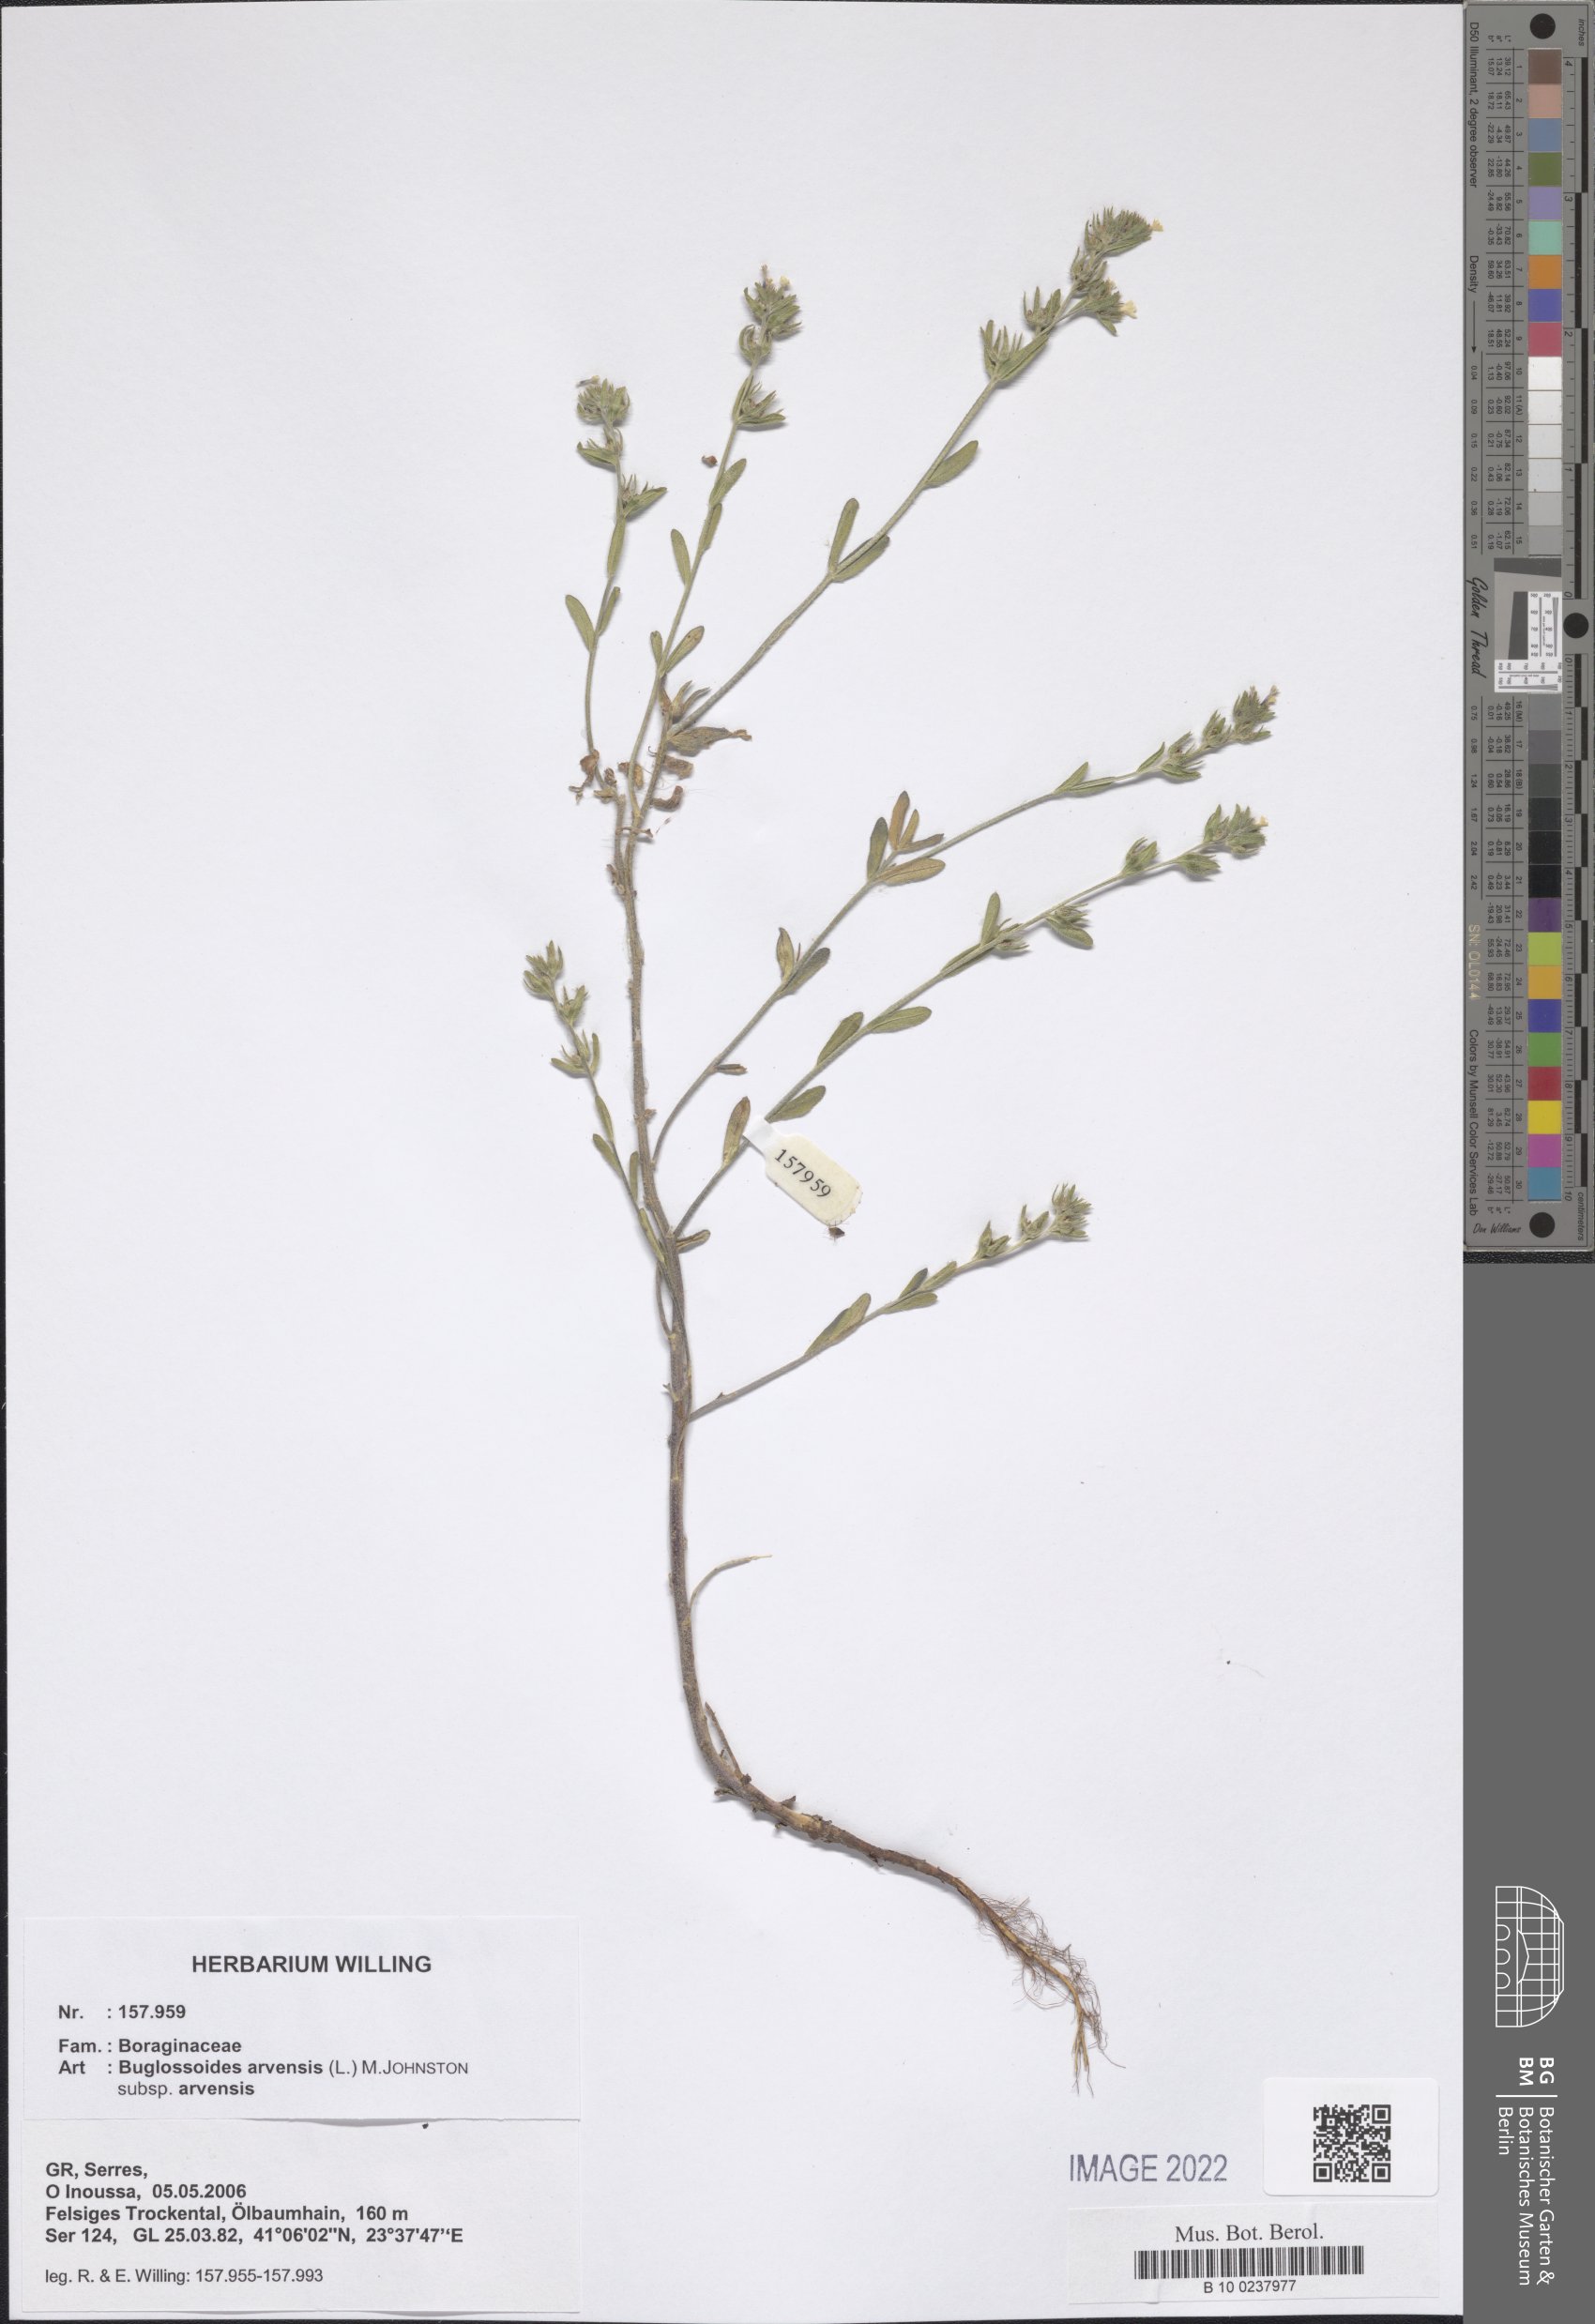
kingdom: Plantae
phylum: Tracheophyta
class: Magnoliopsida
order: Boraginales
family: Boraginaceae
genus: Buglossoides
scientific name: Buglossoides arvensis
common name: Corn gromwell
